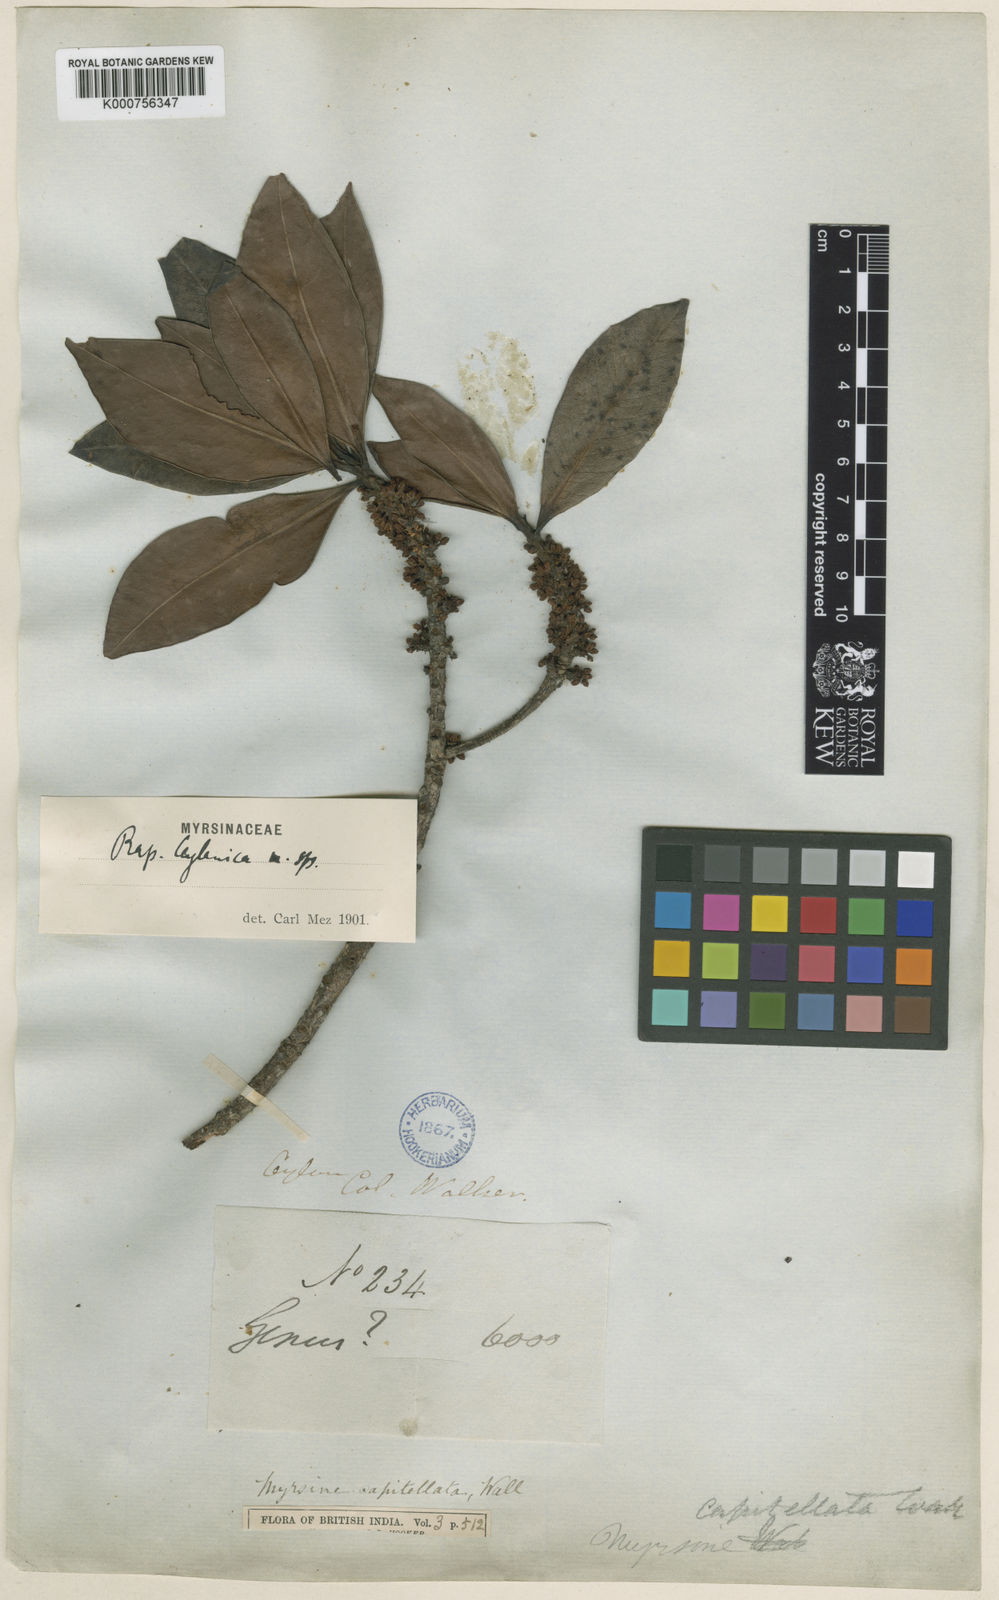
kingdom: Plantae
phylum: Tracheophyta
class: Magnoliopsida
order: Ericales
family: Primulaceae
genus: Myrsine
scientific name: Myrsine ceylanica
